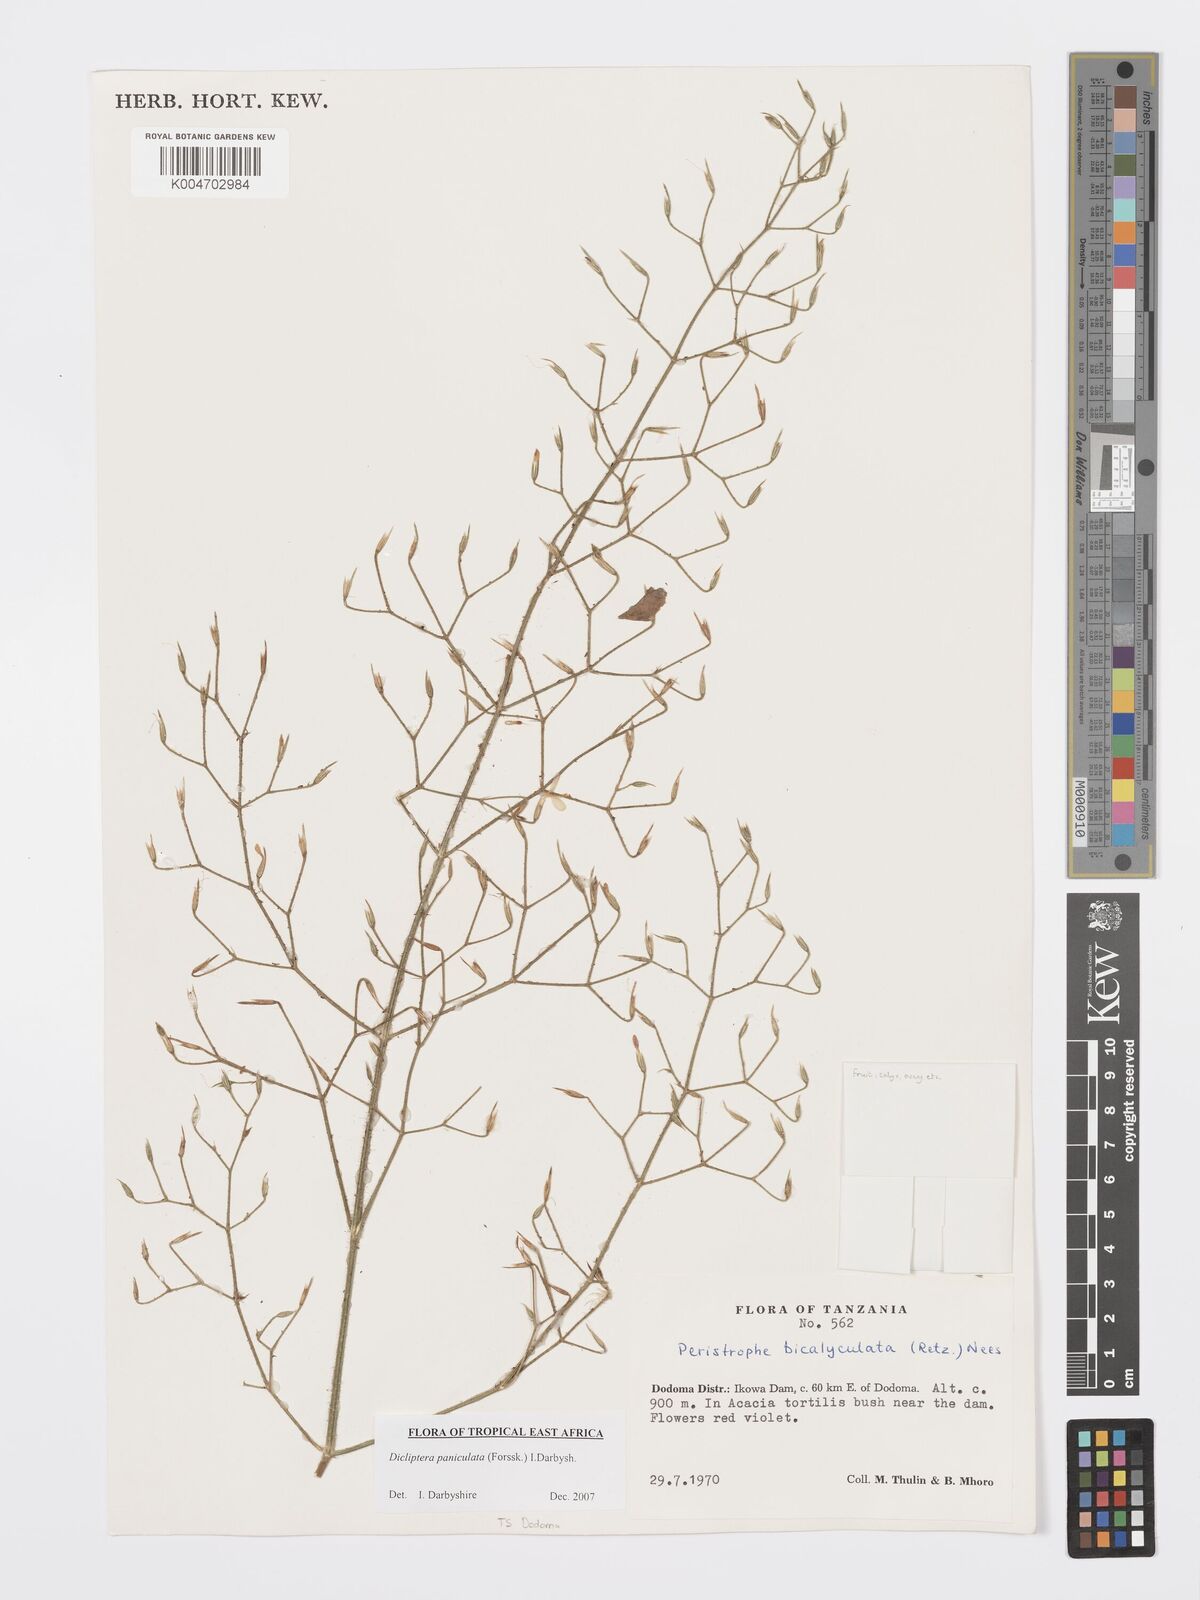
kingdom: Plantae
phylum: Tracheophyta
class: Magnoliopsida
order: Lamiales
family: Acanthaceae
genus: Dicliptera
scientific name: Dicliptera paniculata
